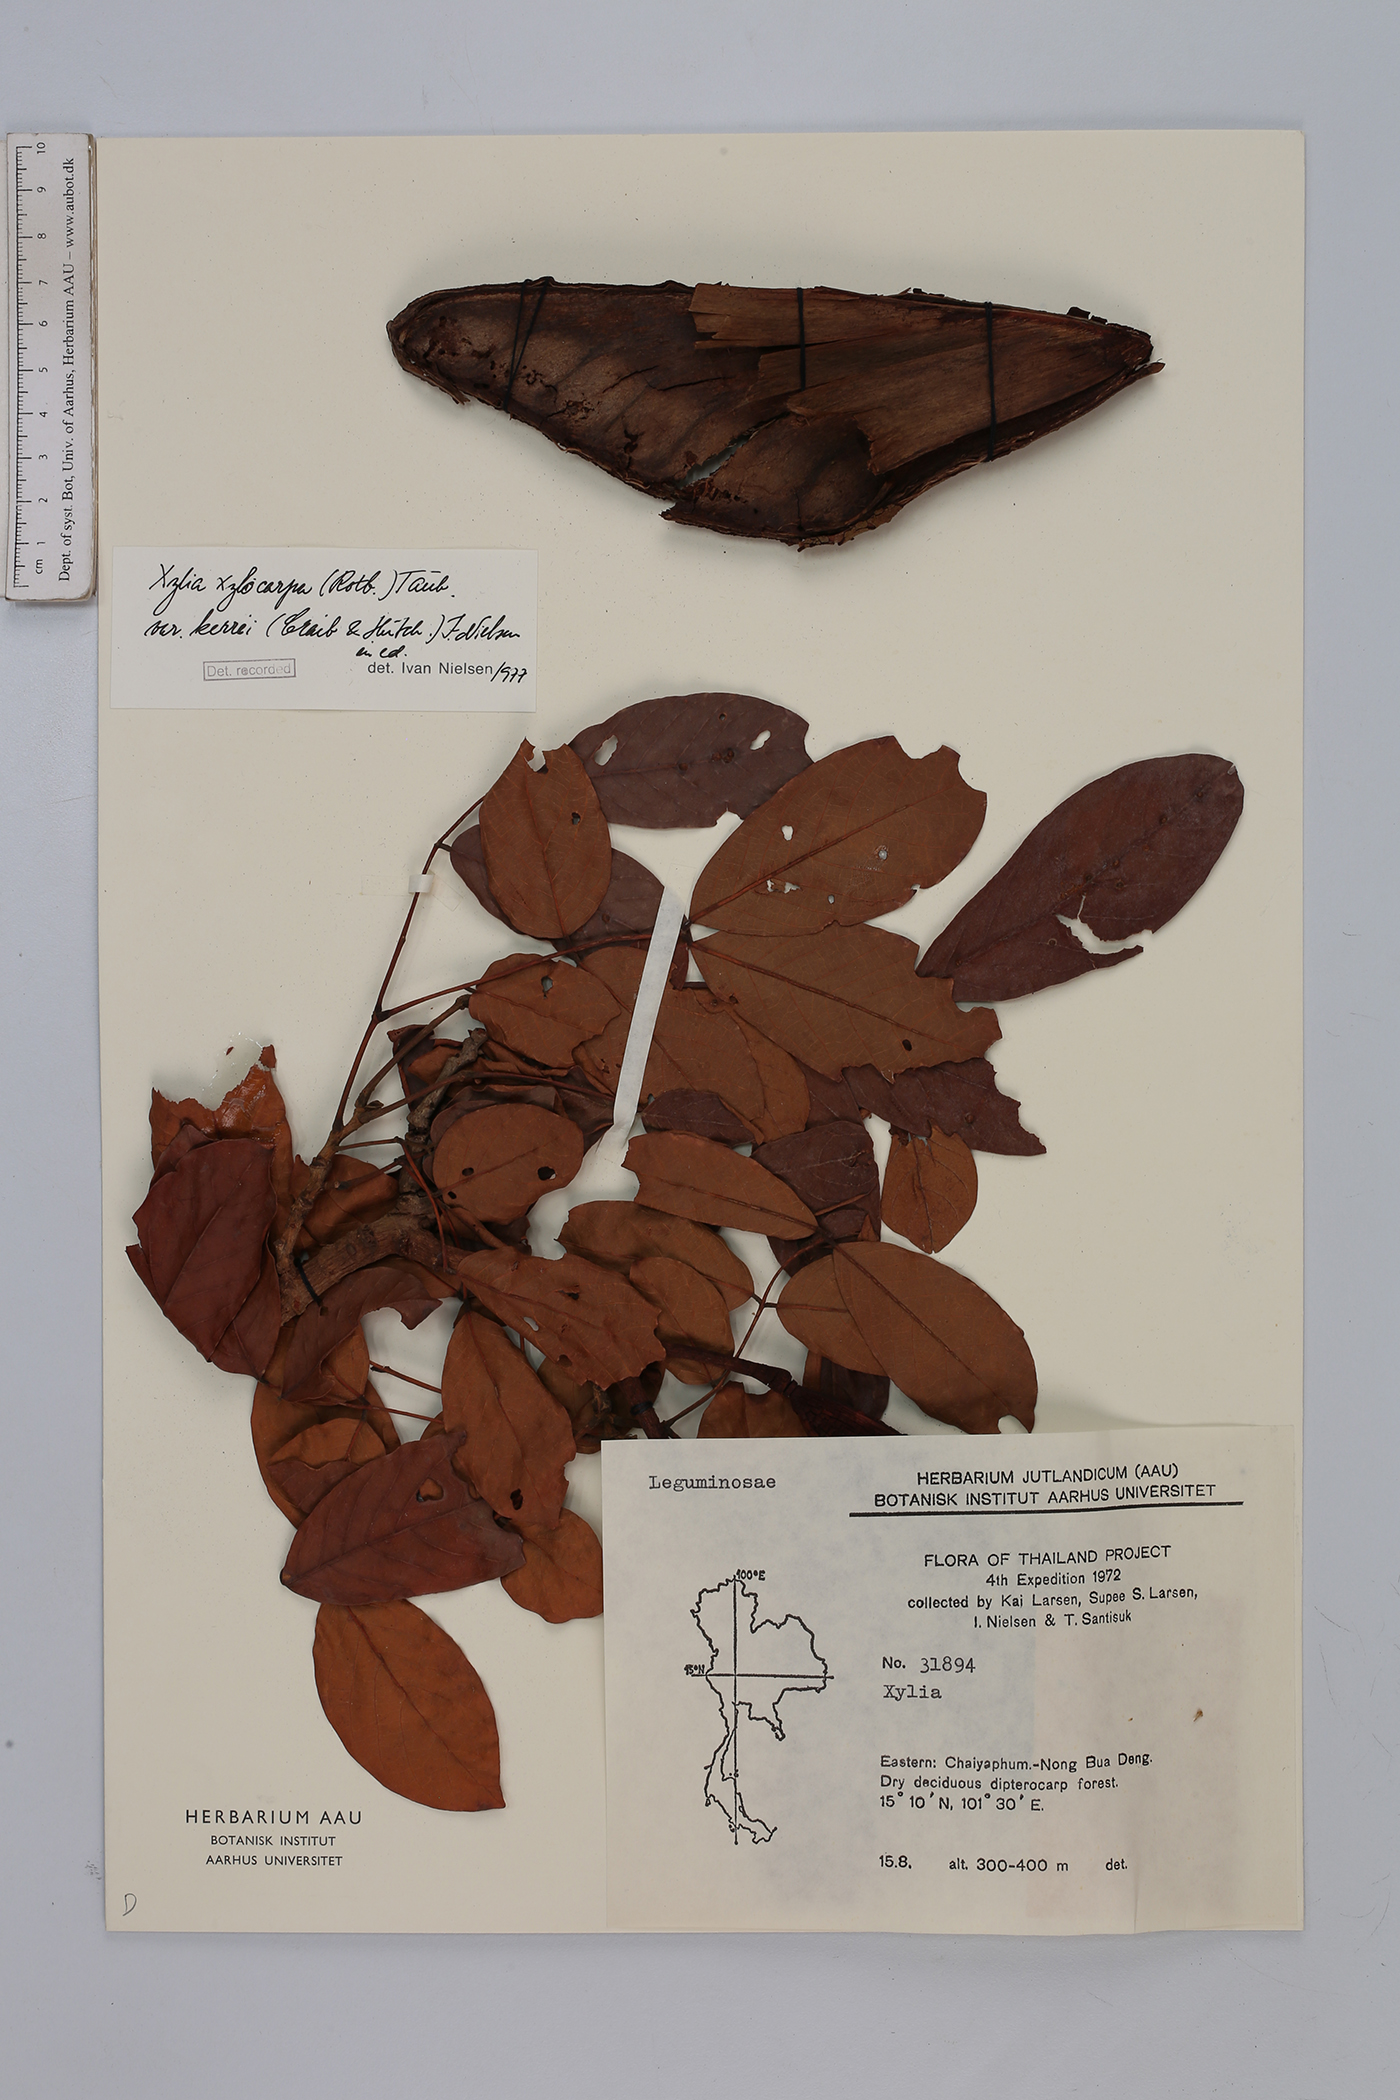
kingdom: Plantae
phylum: Tracheophyta
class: Magnoliopsida
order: Fabales
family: Fabaceae
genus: Xylia
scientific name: Xylia xylocarpa
